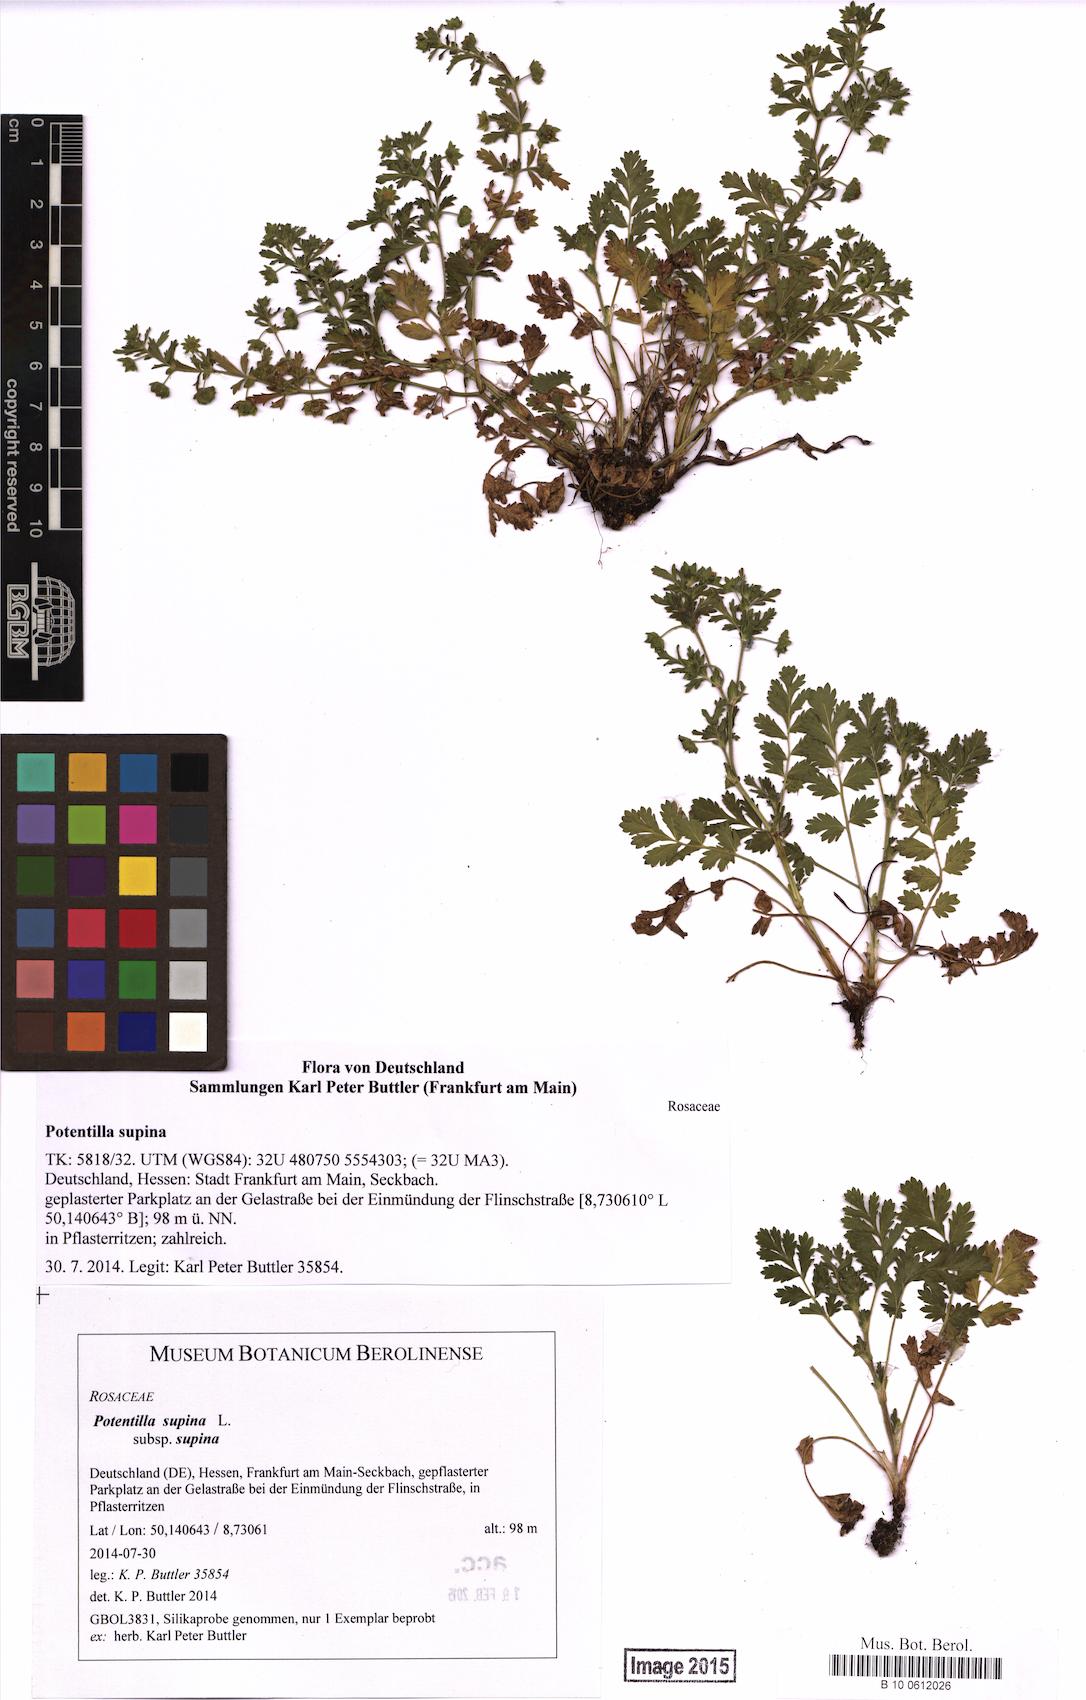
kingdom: Plantae
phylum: Tracheophyta
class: Magnoliopsida
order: Rosales
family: Rosaceae
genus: Potentilla
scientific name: Potentilla supina
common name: Prostrate cinquefoil
